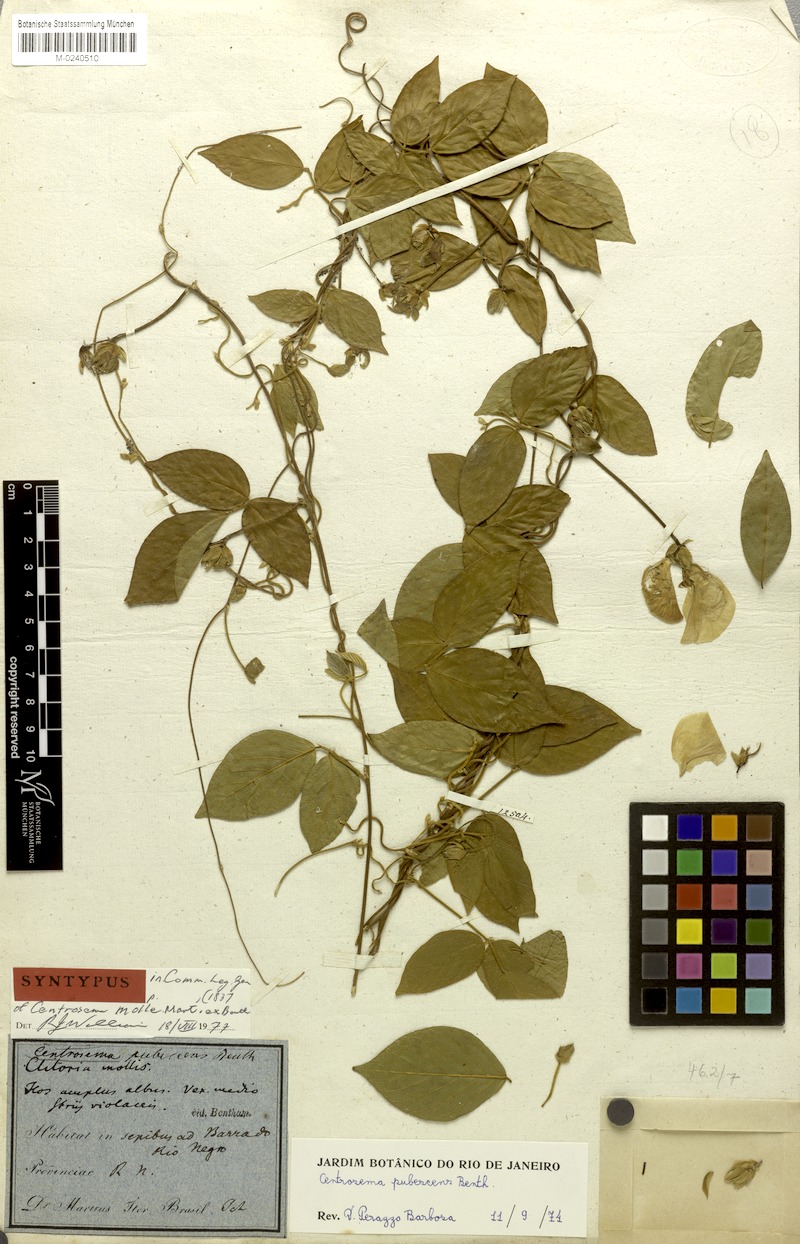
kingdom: Plantae
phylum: Tracheophyta
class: Magnoliopsida
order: Fabales
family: Fabaceae
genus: Centrosema
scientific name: Centrosema molle
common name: Soft butterfly pea
